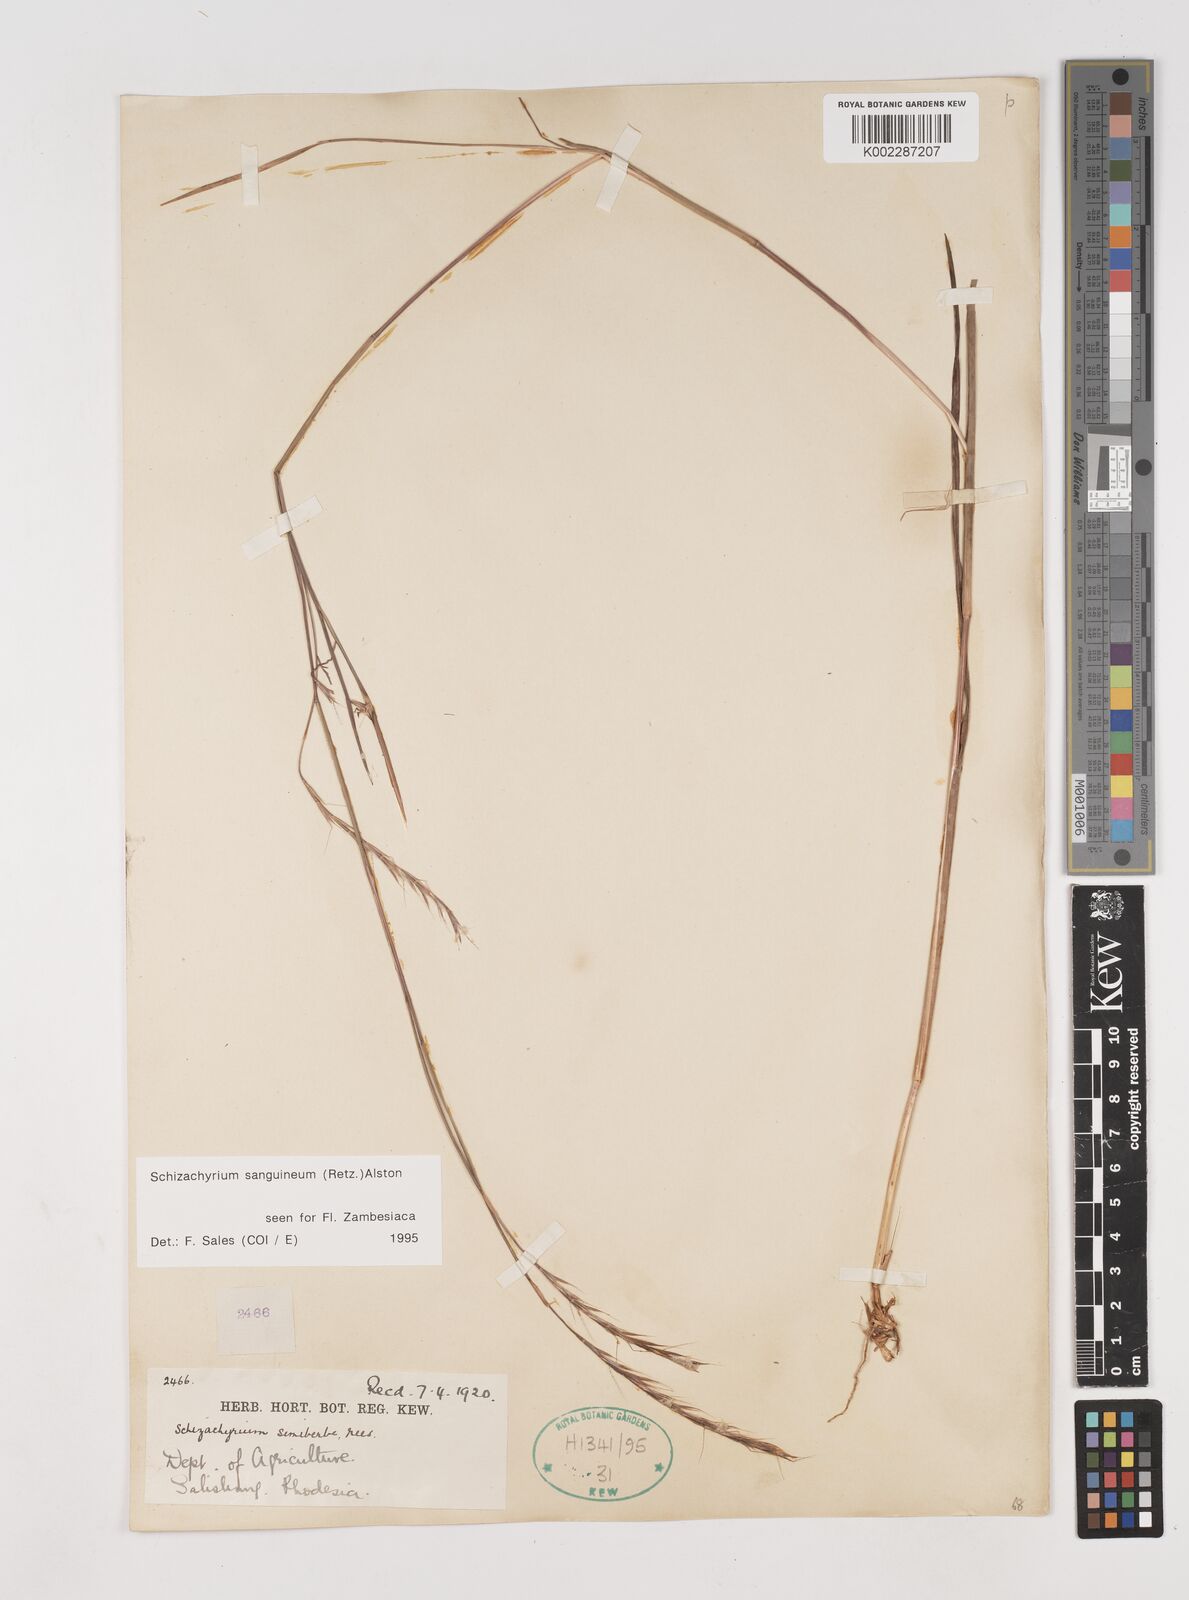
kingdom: Plantae
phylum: Tracheophyta
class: Liliopsida
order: Poales
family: Poaceae
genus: Schizachyrium
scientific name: Schizachyrium sanguineum
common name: Crimson bluestem
